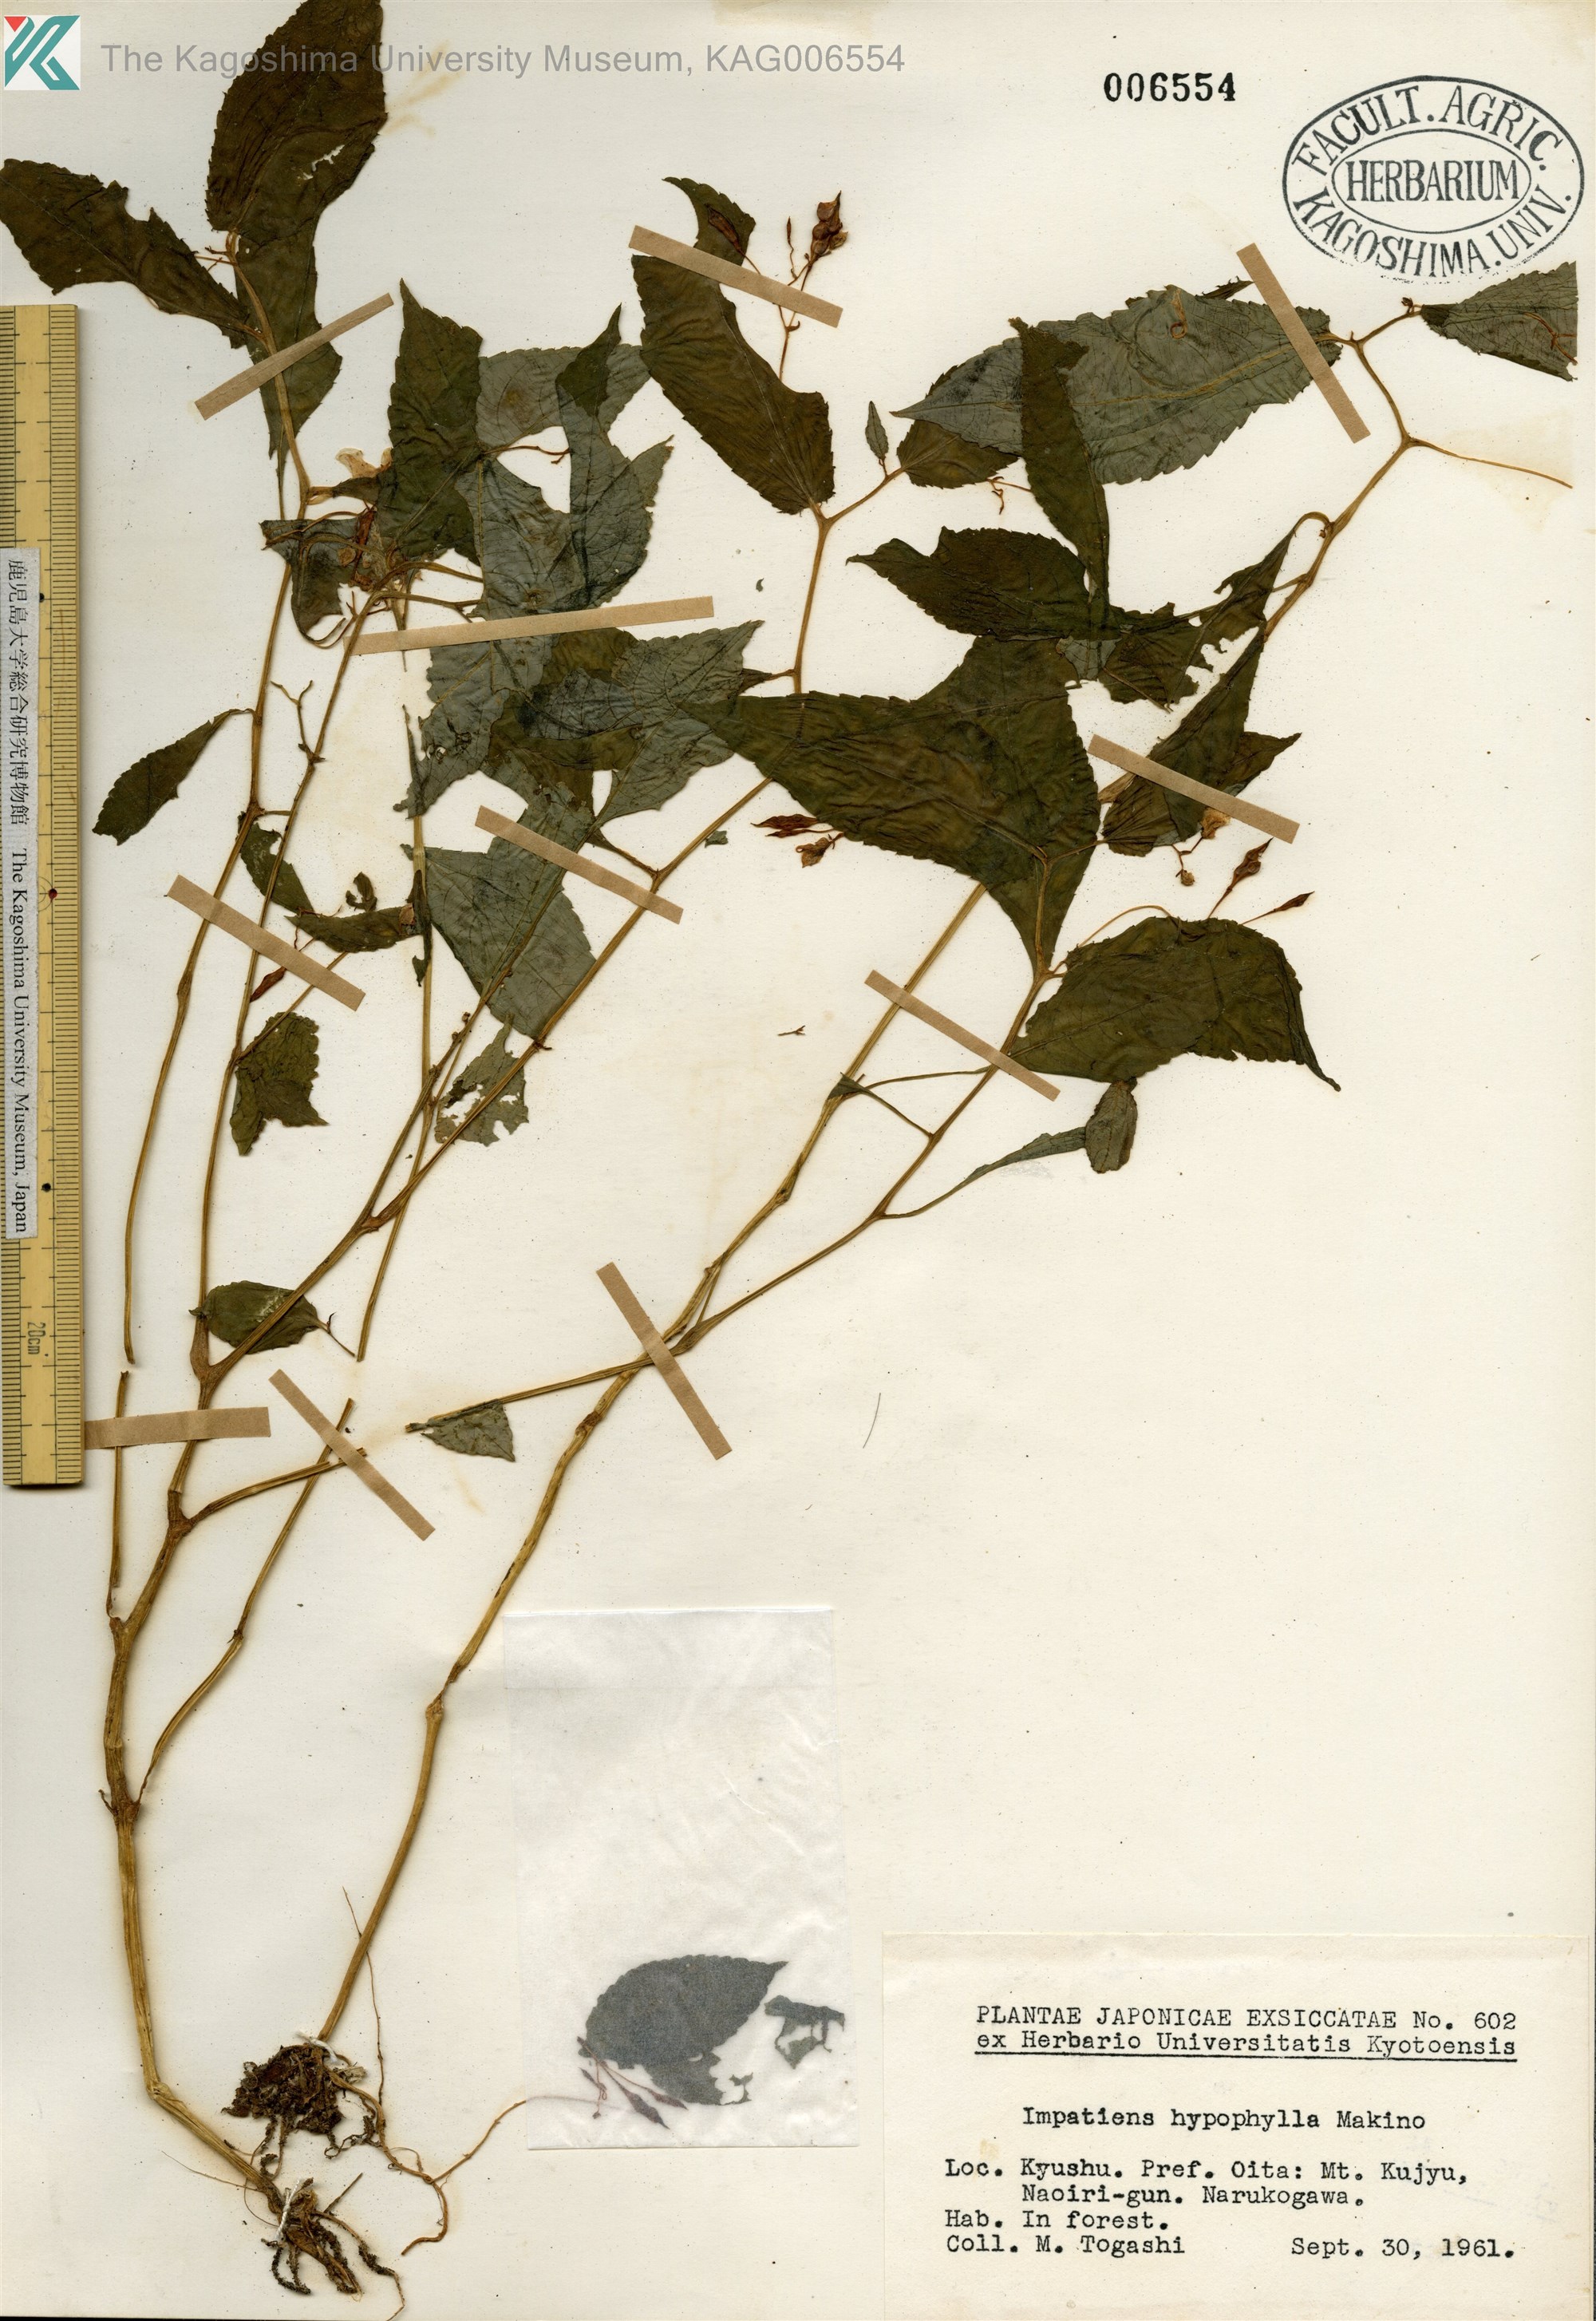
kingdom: Plantae
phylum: Tracheophyta
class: Magnoliopsida
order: Ericales
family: Balsaminaceae
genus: Impatiens
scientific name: Impatiens hypophylla
